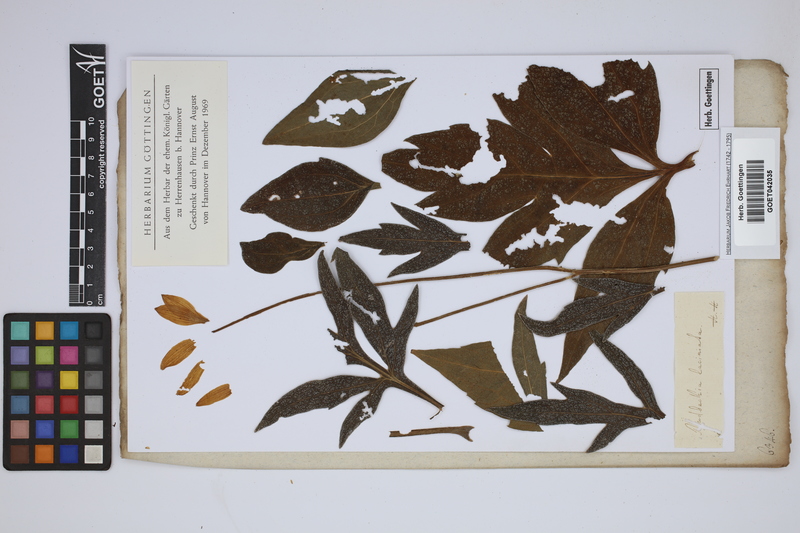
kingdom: Plantae
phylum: Tracheophyta
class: Magnoliopsida
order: Asterales
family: Asteraceae
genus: Rudbeckia
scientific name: Rudbeckia laciniata
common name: Coneflower
